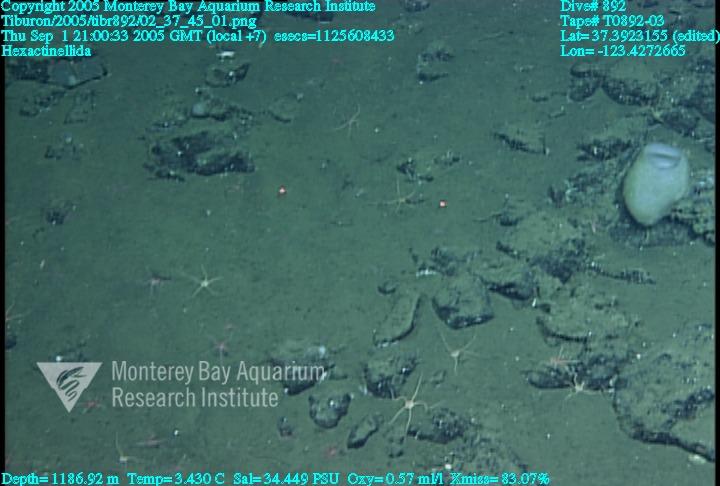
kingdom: Animalia
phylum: Porifera
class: Hexactinellida
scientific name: Hexactinellida
